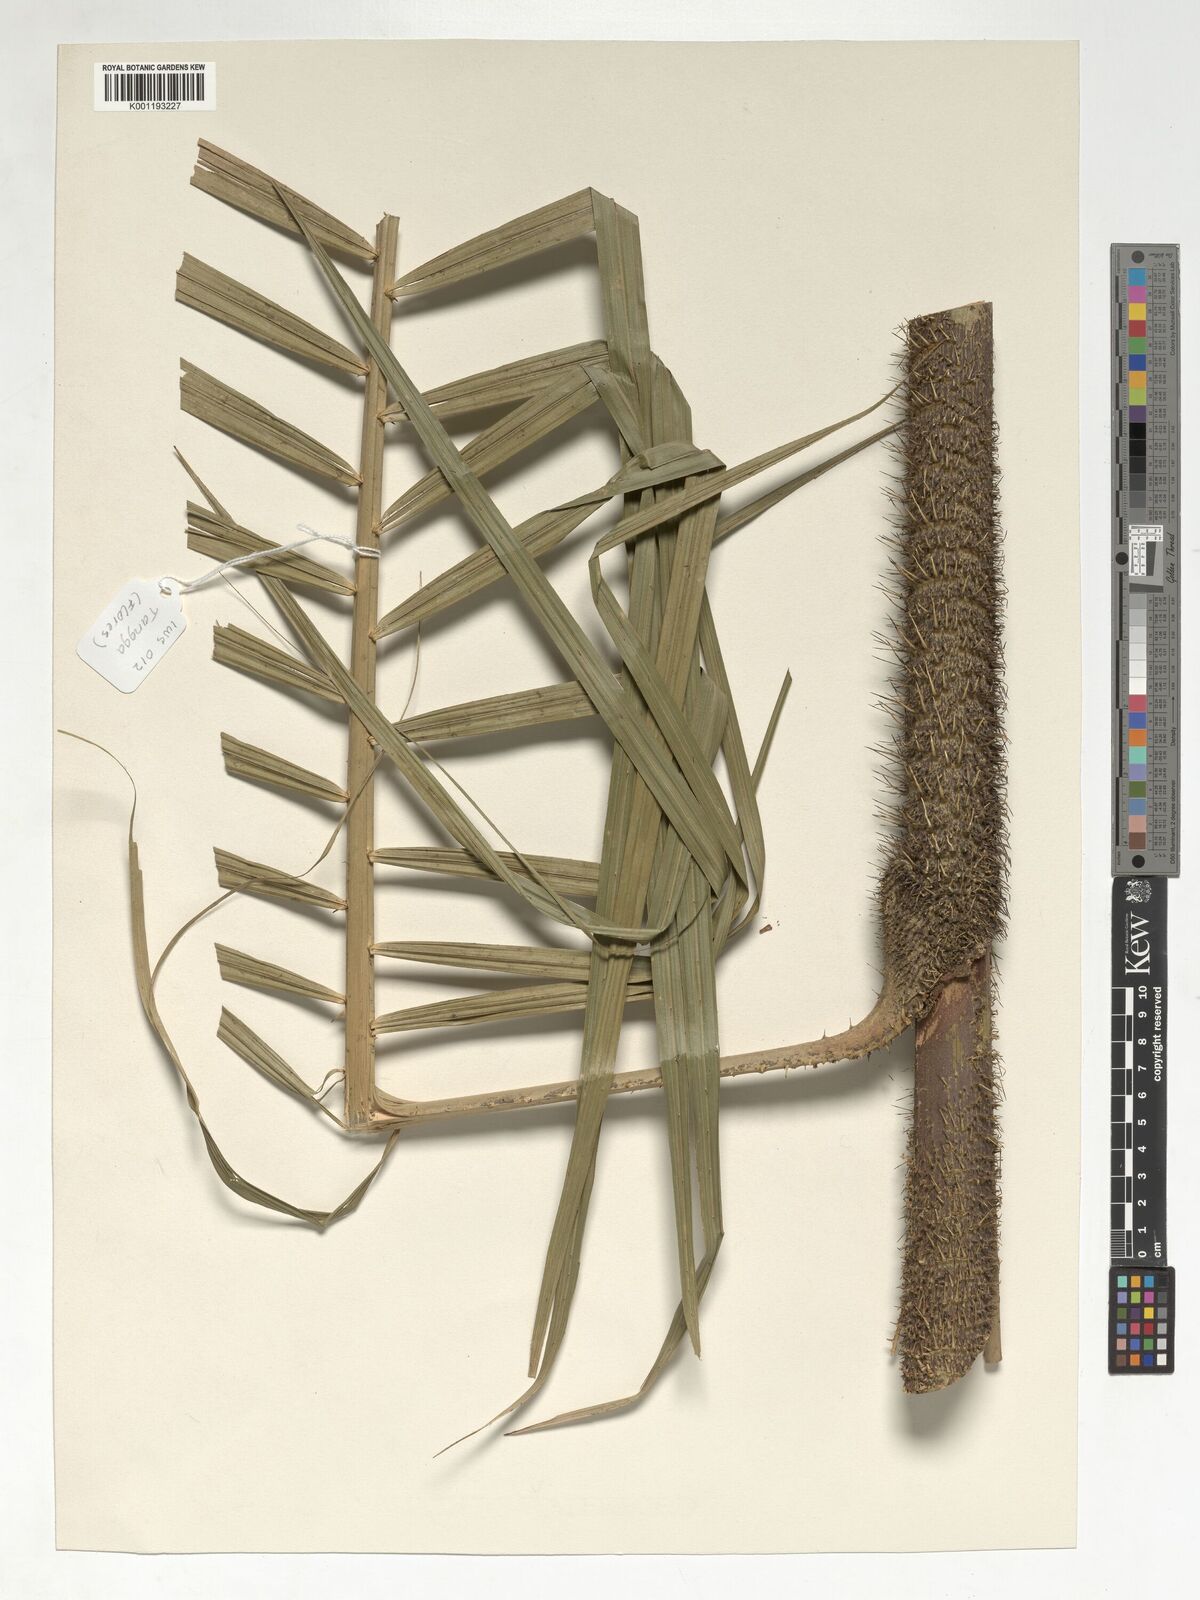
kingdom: Plantae
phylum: Tracheophyta
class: Liliopsida
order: Arecales
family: Arecaceae
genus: Calamus
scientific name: Calamus
